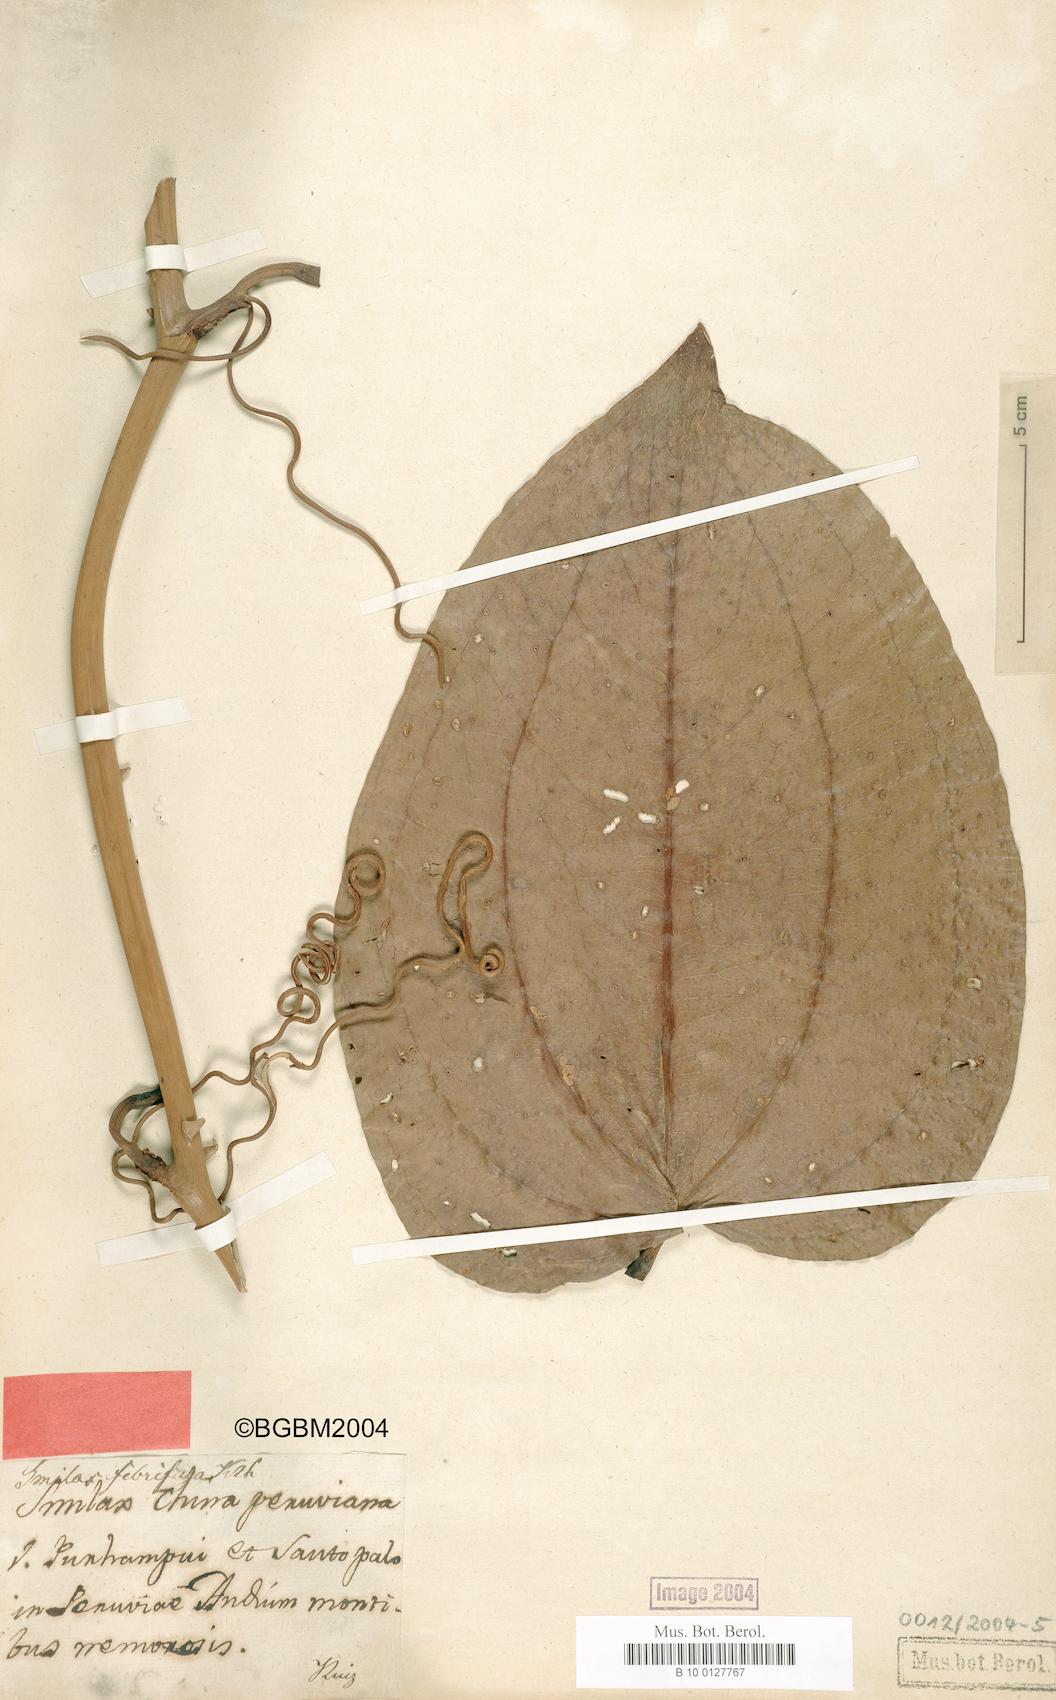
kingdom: Plantae
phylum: Tracheophyta
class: Liliopsida
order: Liliales
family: Smilacaceae
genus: Smilax
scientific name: Smilax purhampuy
